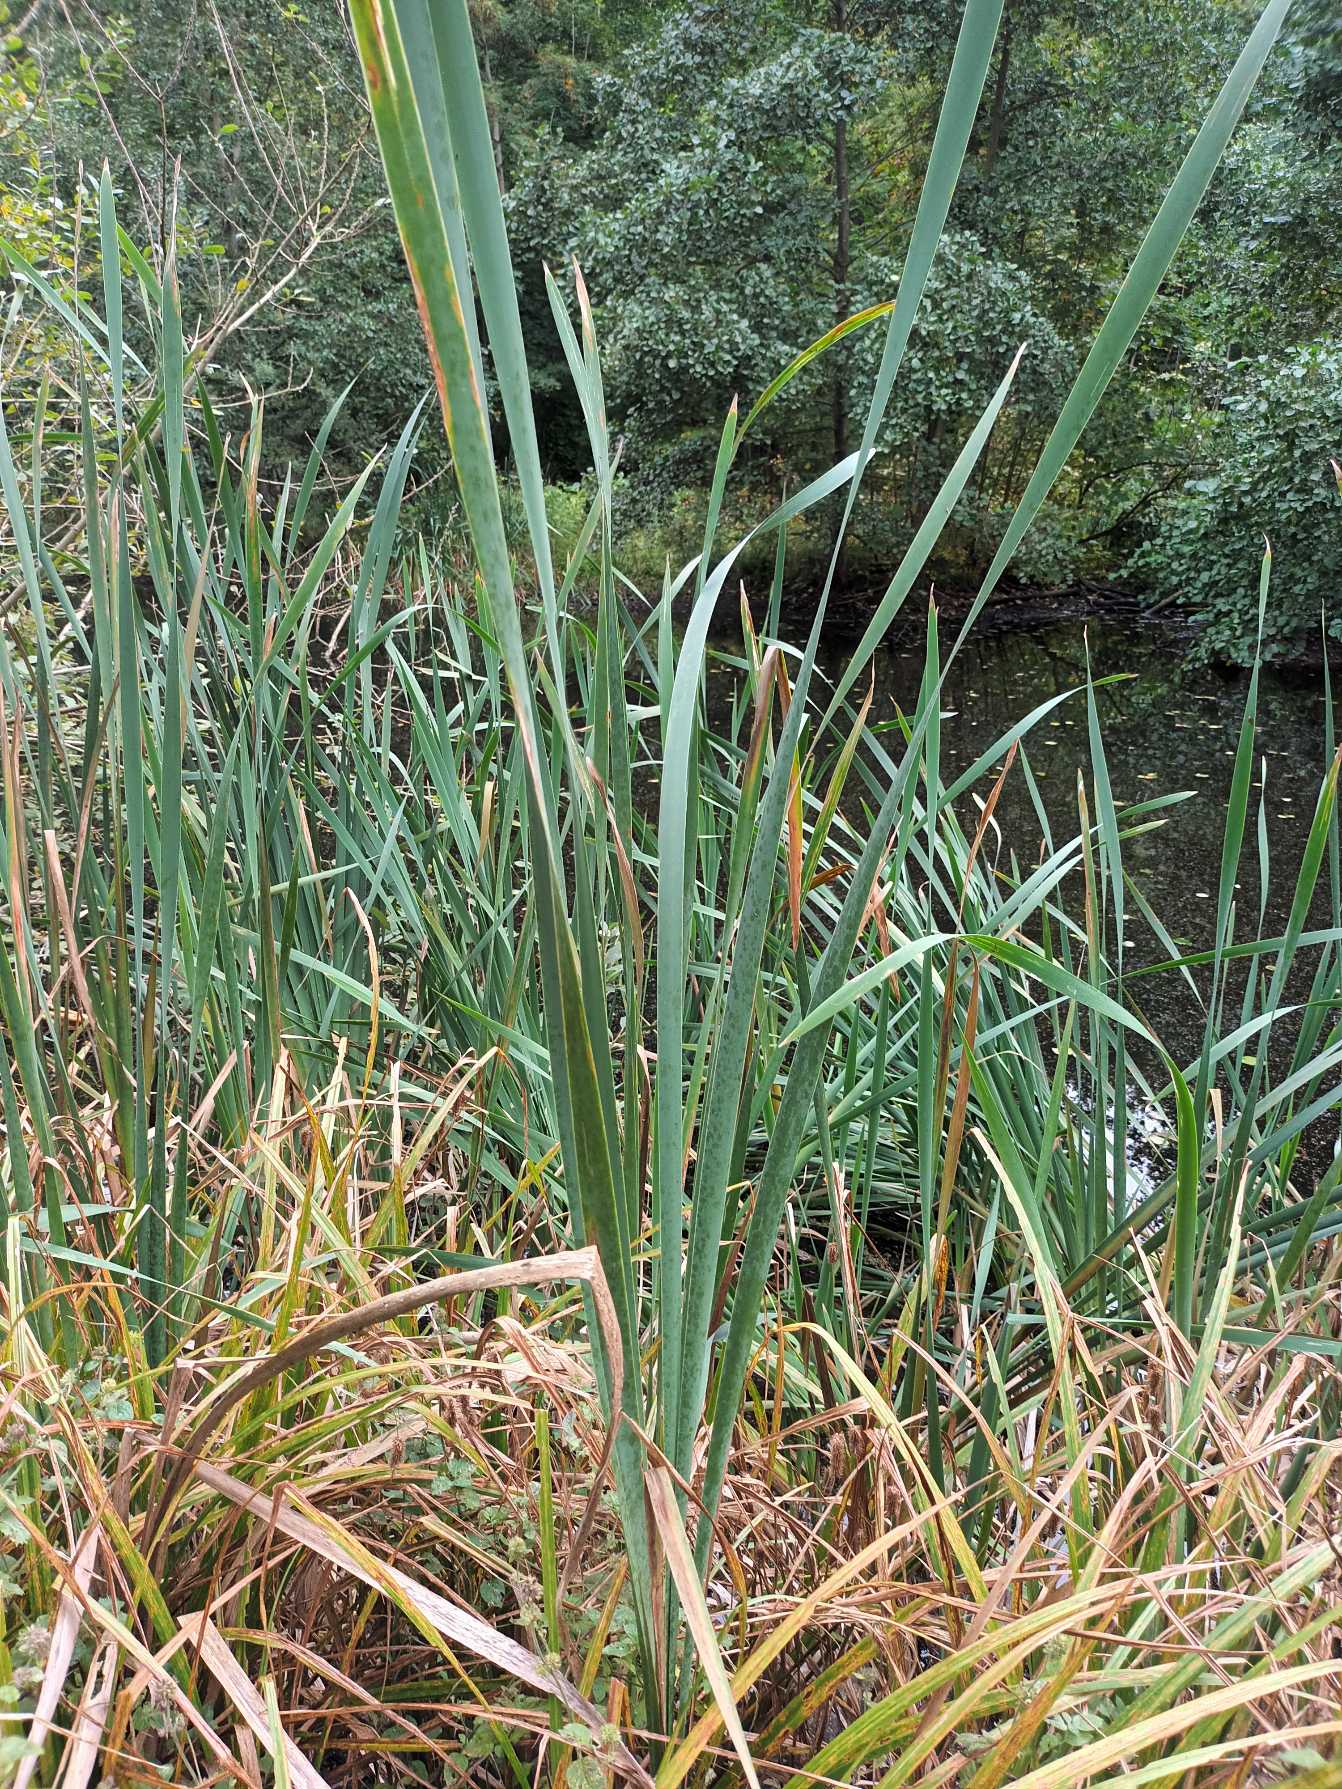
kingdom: Plantae
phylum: Tracheophyta
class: Liliopsida
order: Poales
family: Typhaceae
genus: Typha
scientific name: Typha latifolia
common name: Bredbladet dunhammer
